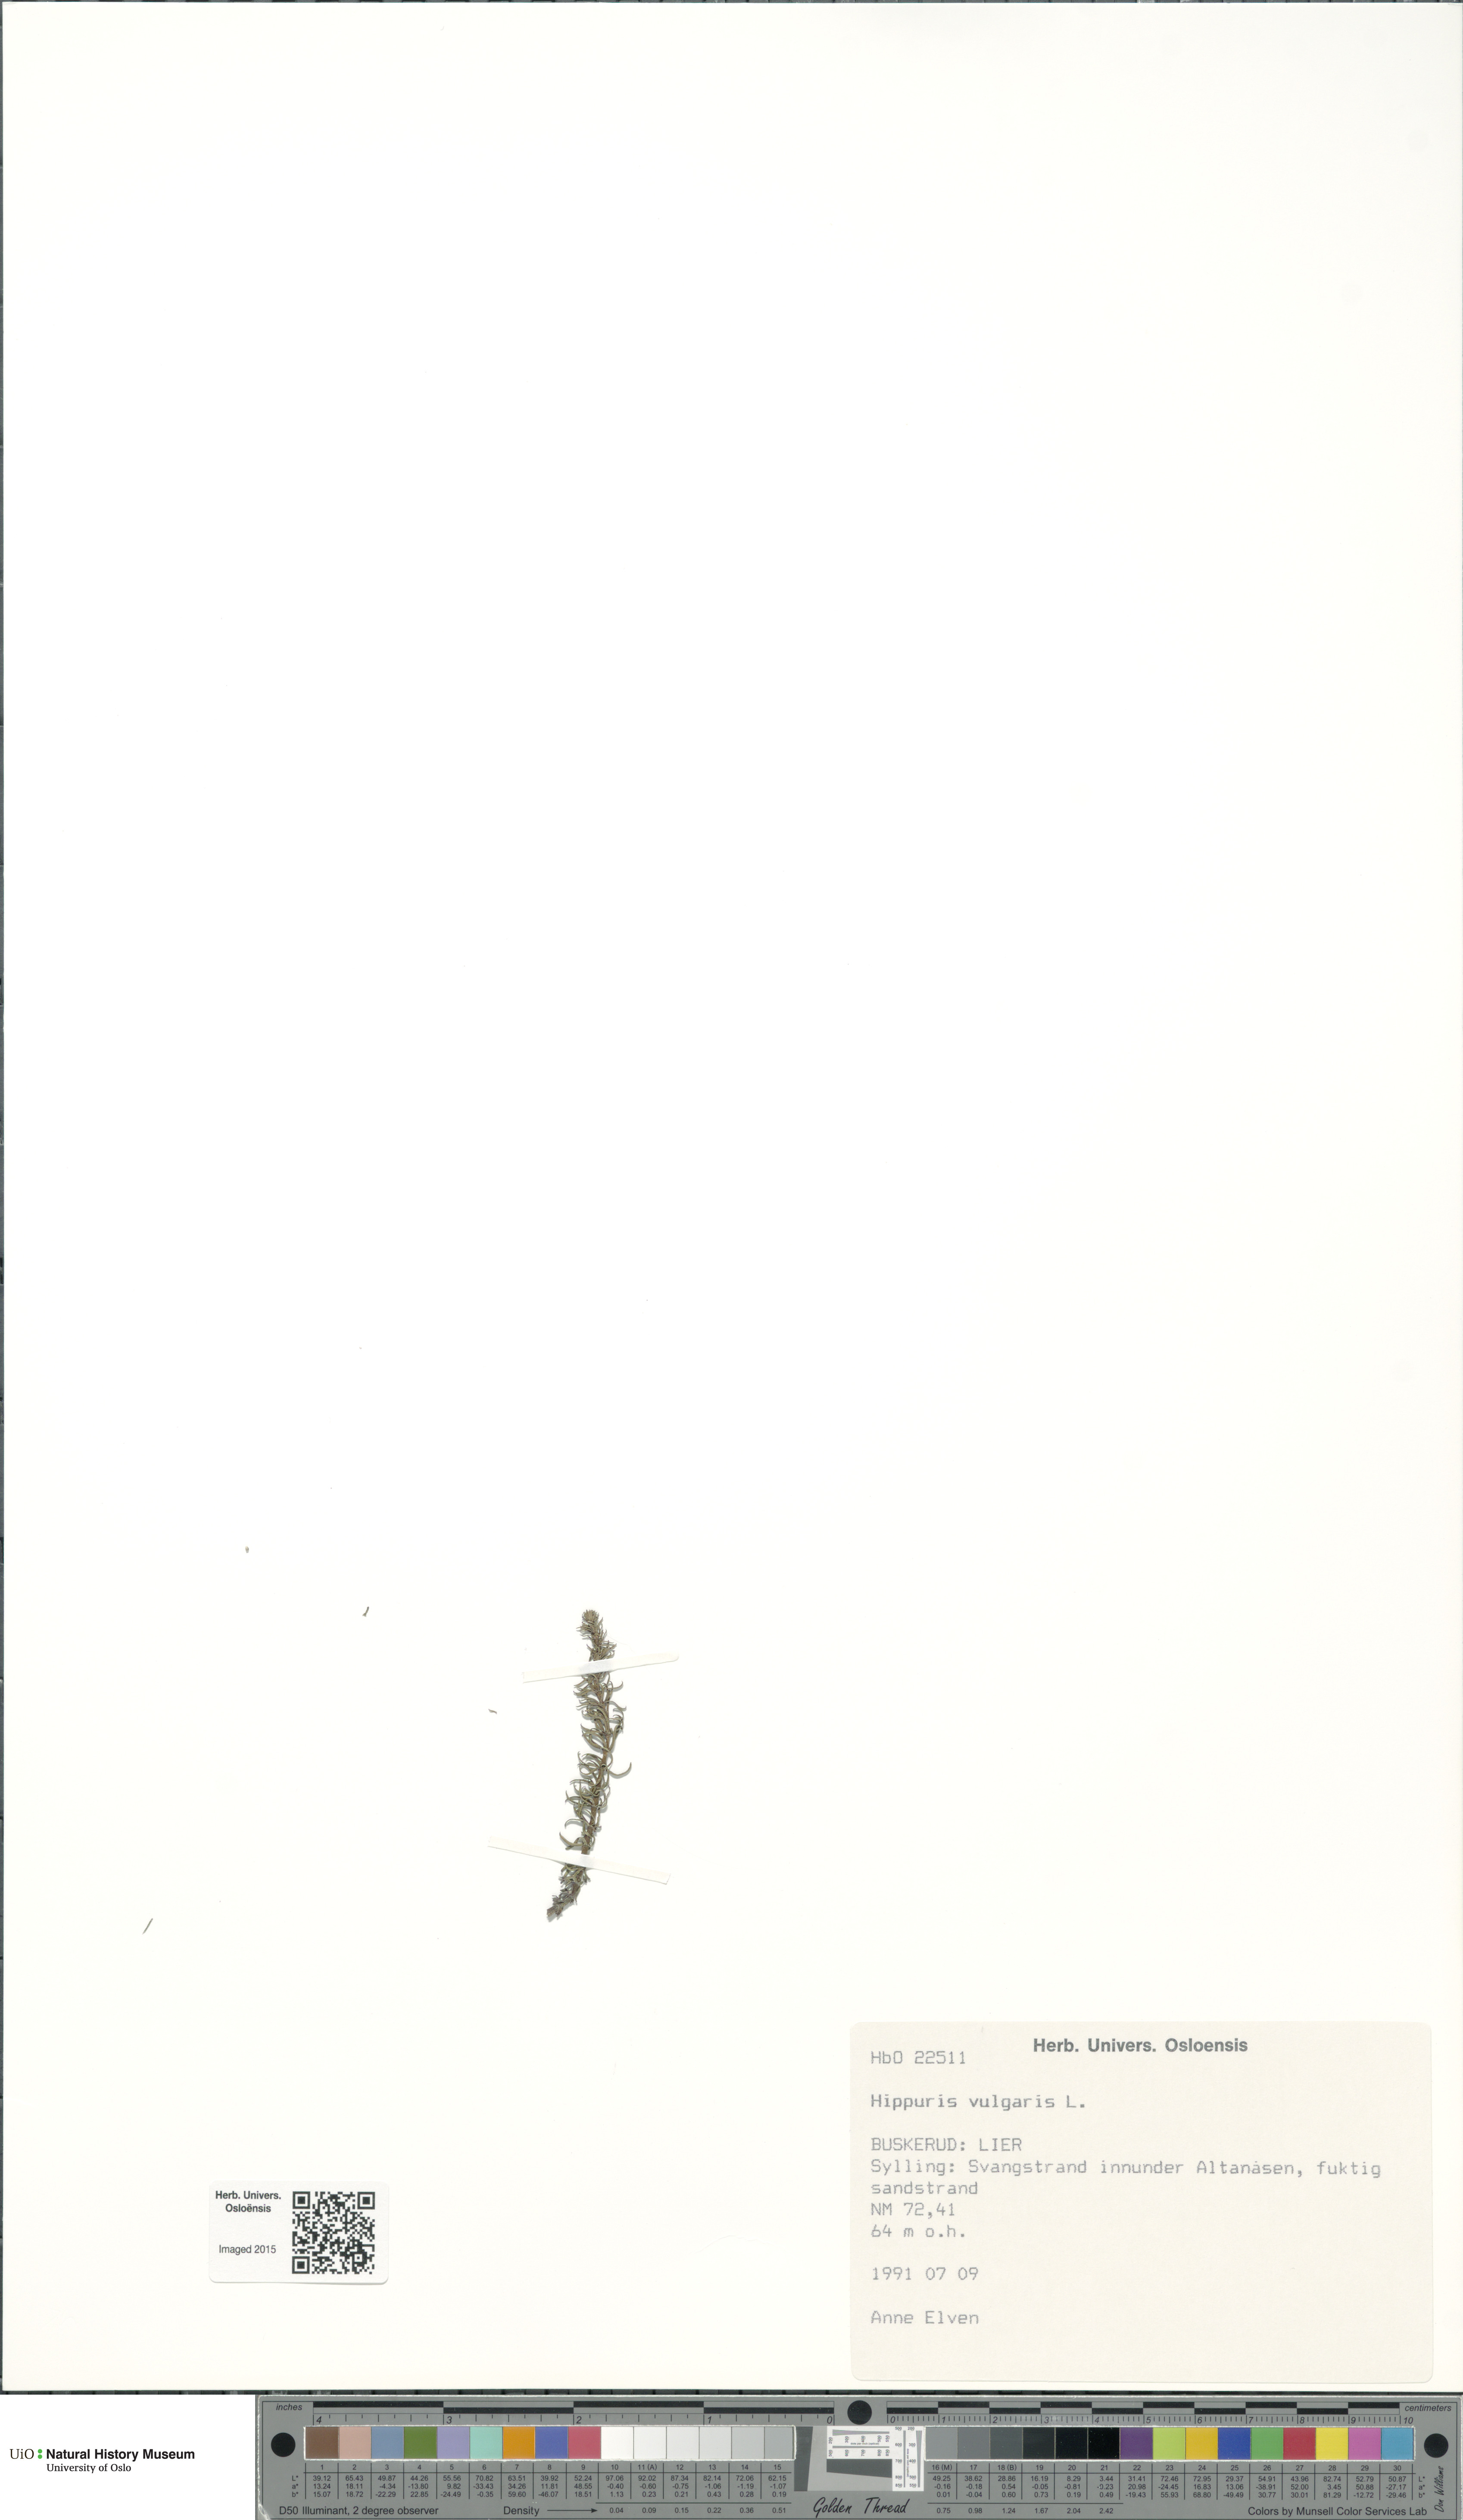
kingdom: Plantae
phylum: Tracheophyta
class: Magnoliopsida
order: Lamiales
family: Plantaginaceae
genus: Hippuris
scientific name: Hippuris vulgaris
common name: Mare's-tail
